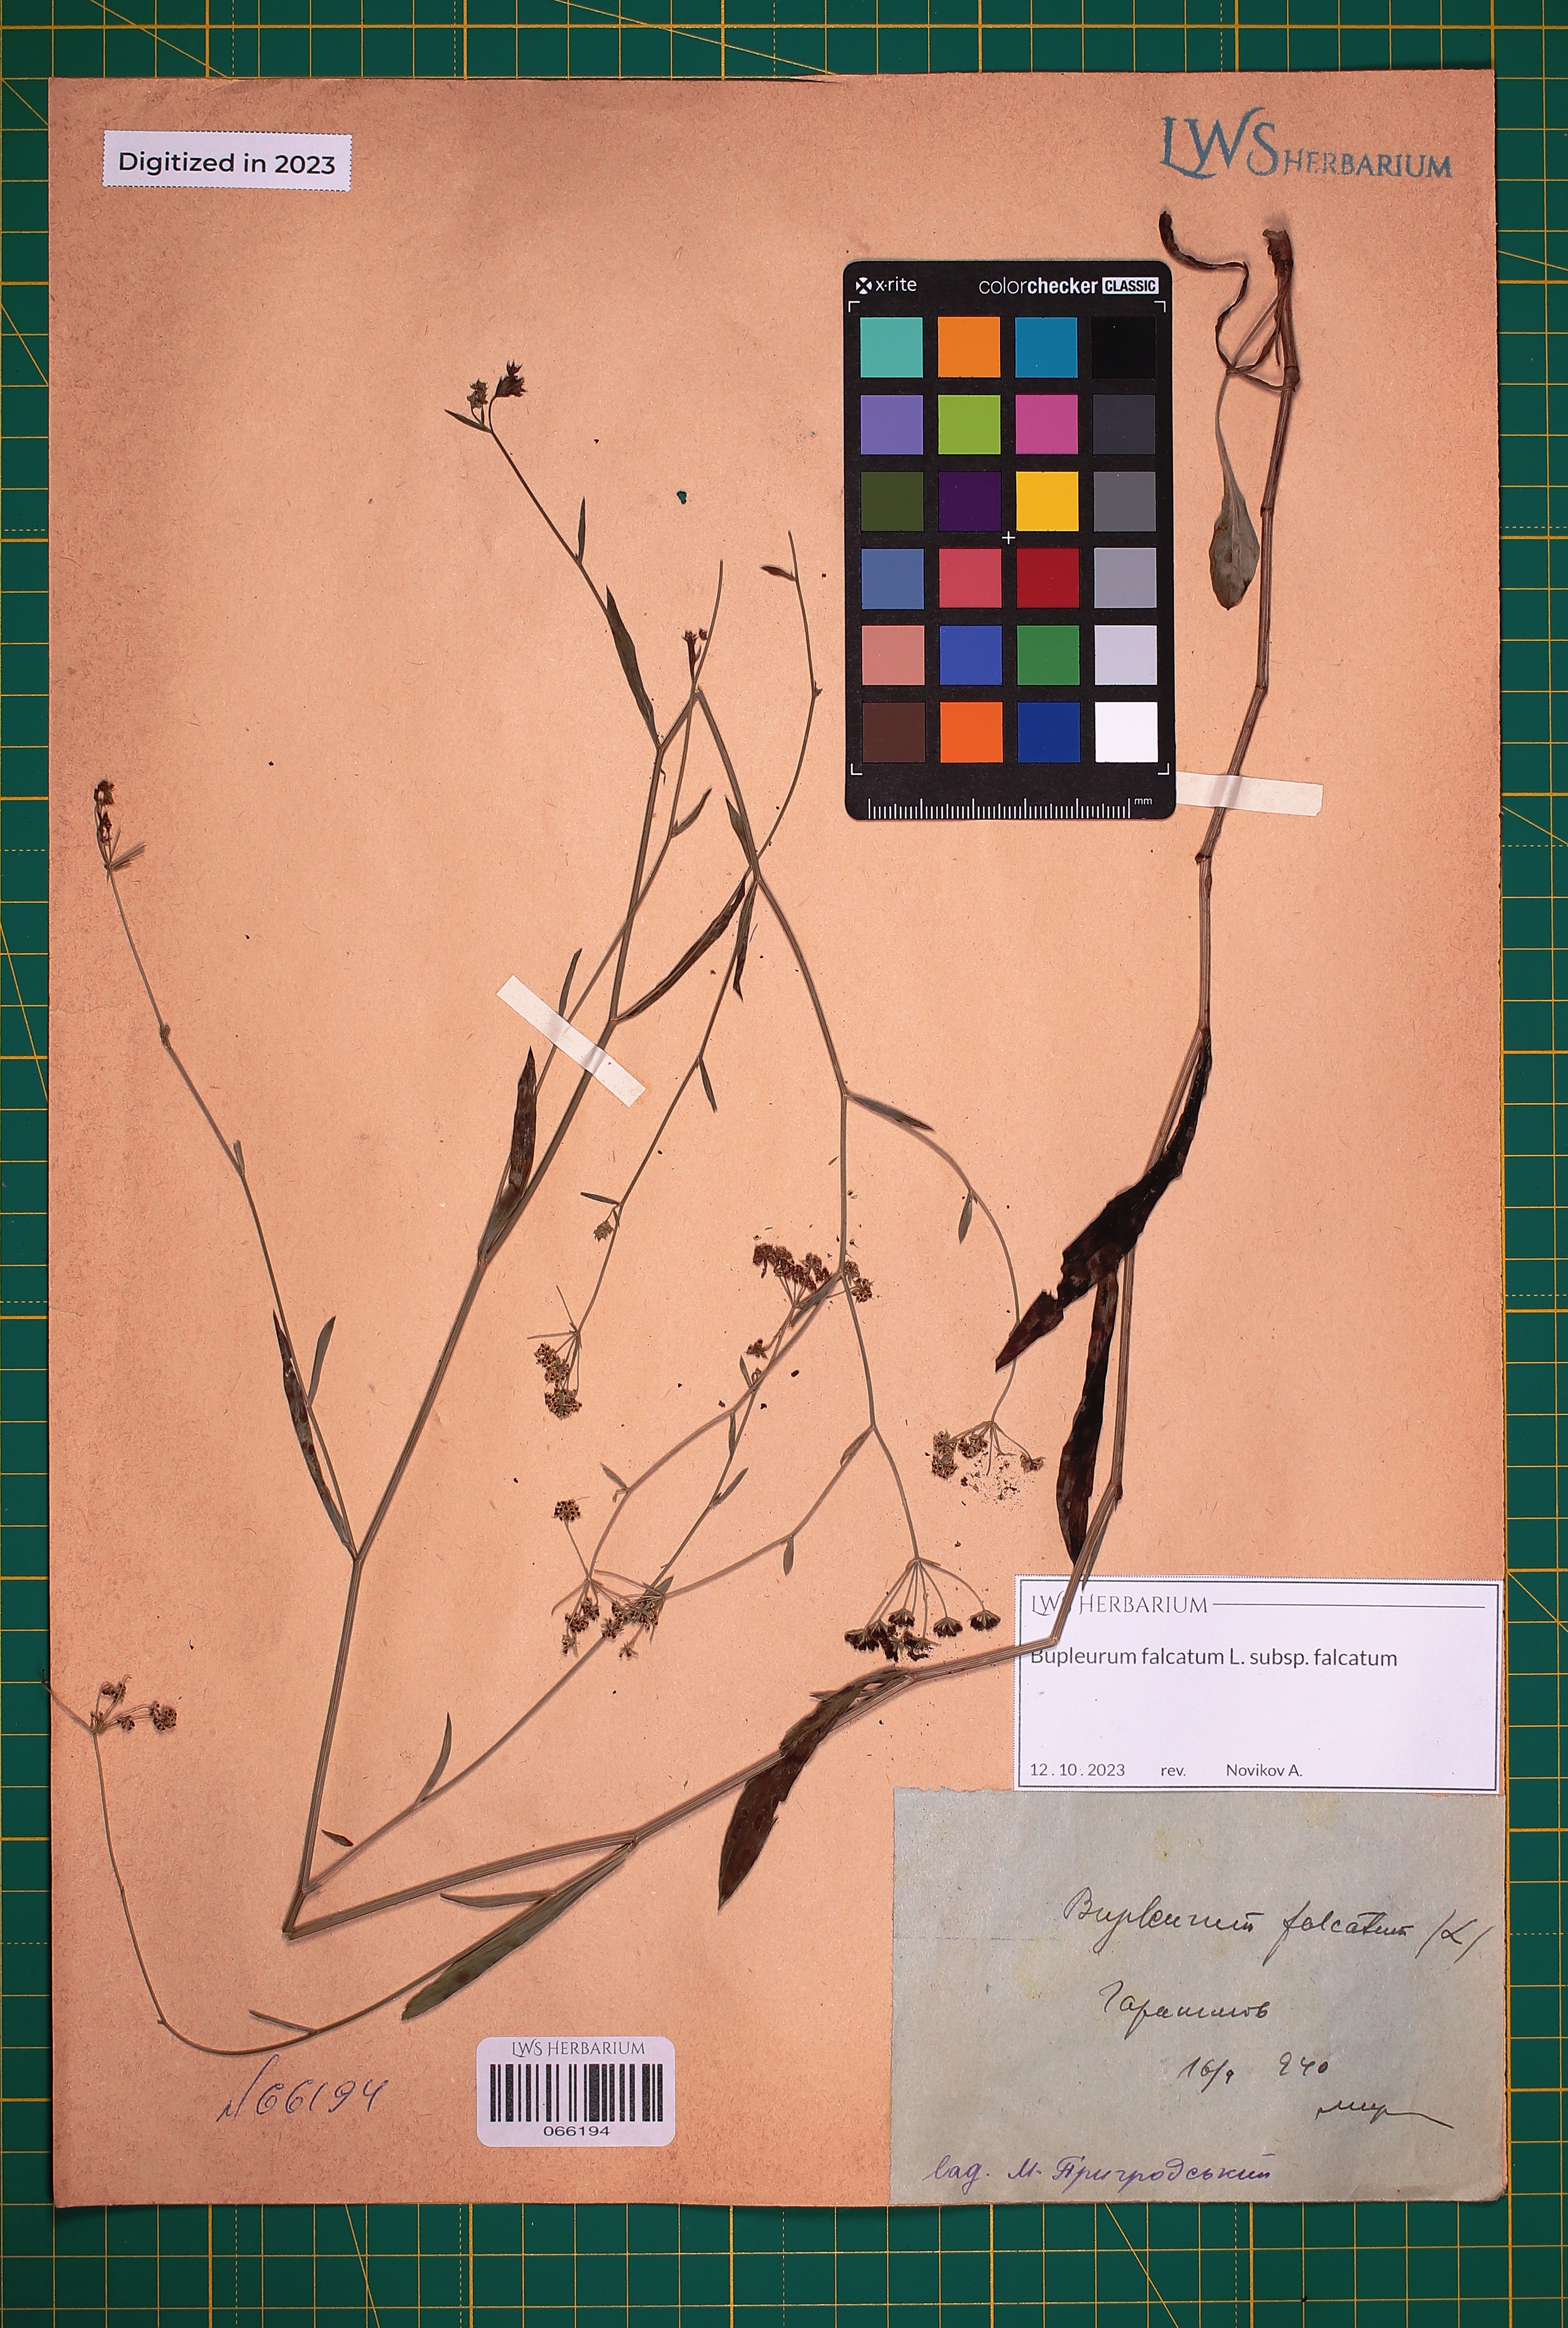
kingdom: Plantae
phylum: Tracheophyta
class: Magnoliopsida
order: Apiales
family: Apiaceae
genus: Bupleurum
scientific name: Bupleurum falcatum
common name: Sickle-leaved hare's-ear
